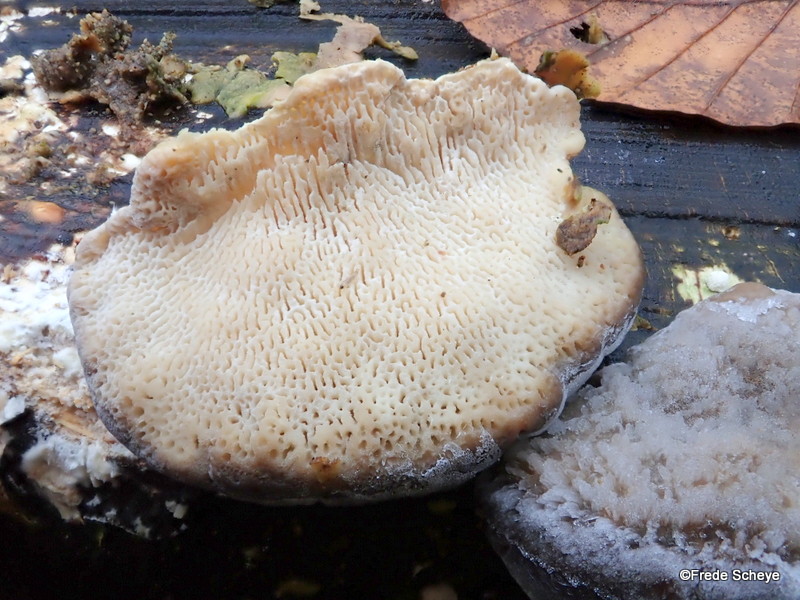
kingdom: Fungi
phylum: Basidiomycota
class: Agaricomycetes
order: Polyporales
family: Polyporaceae
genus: Trametes
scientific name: Trametes gibbosa
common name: puklet læderporesvamp
